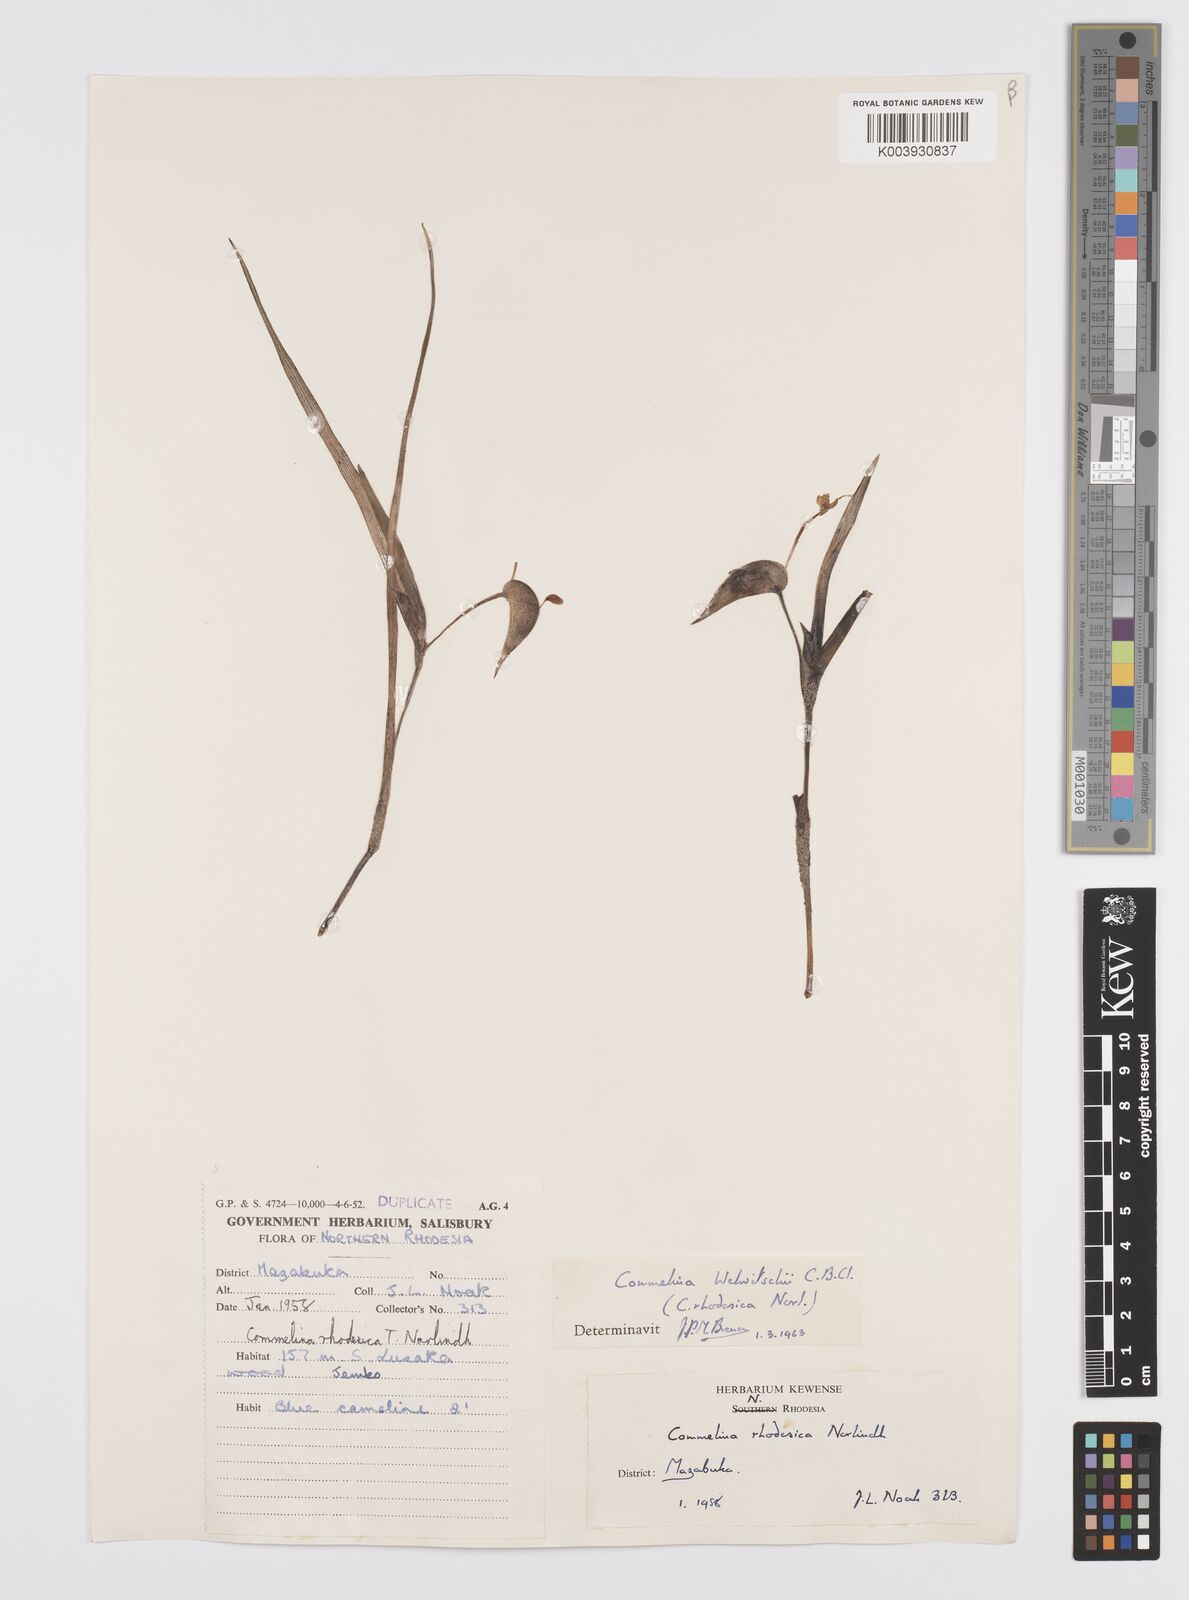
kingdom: Plantae
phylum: Tracheophyta
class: Liliopsida
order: Commelinales
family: Commelinaceae
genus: Commelina
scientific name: Commelina welwitschii
